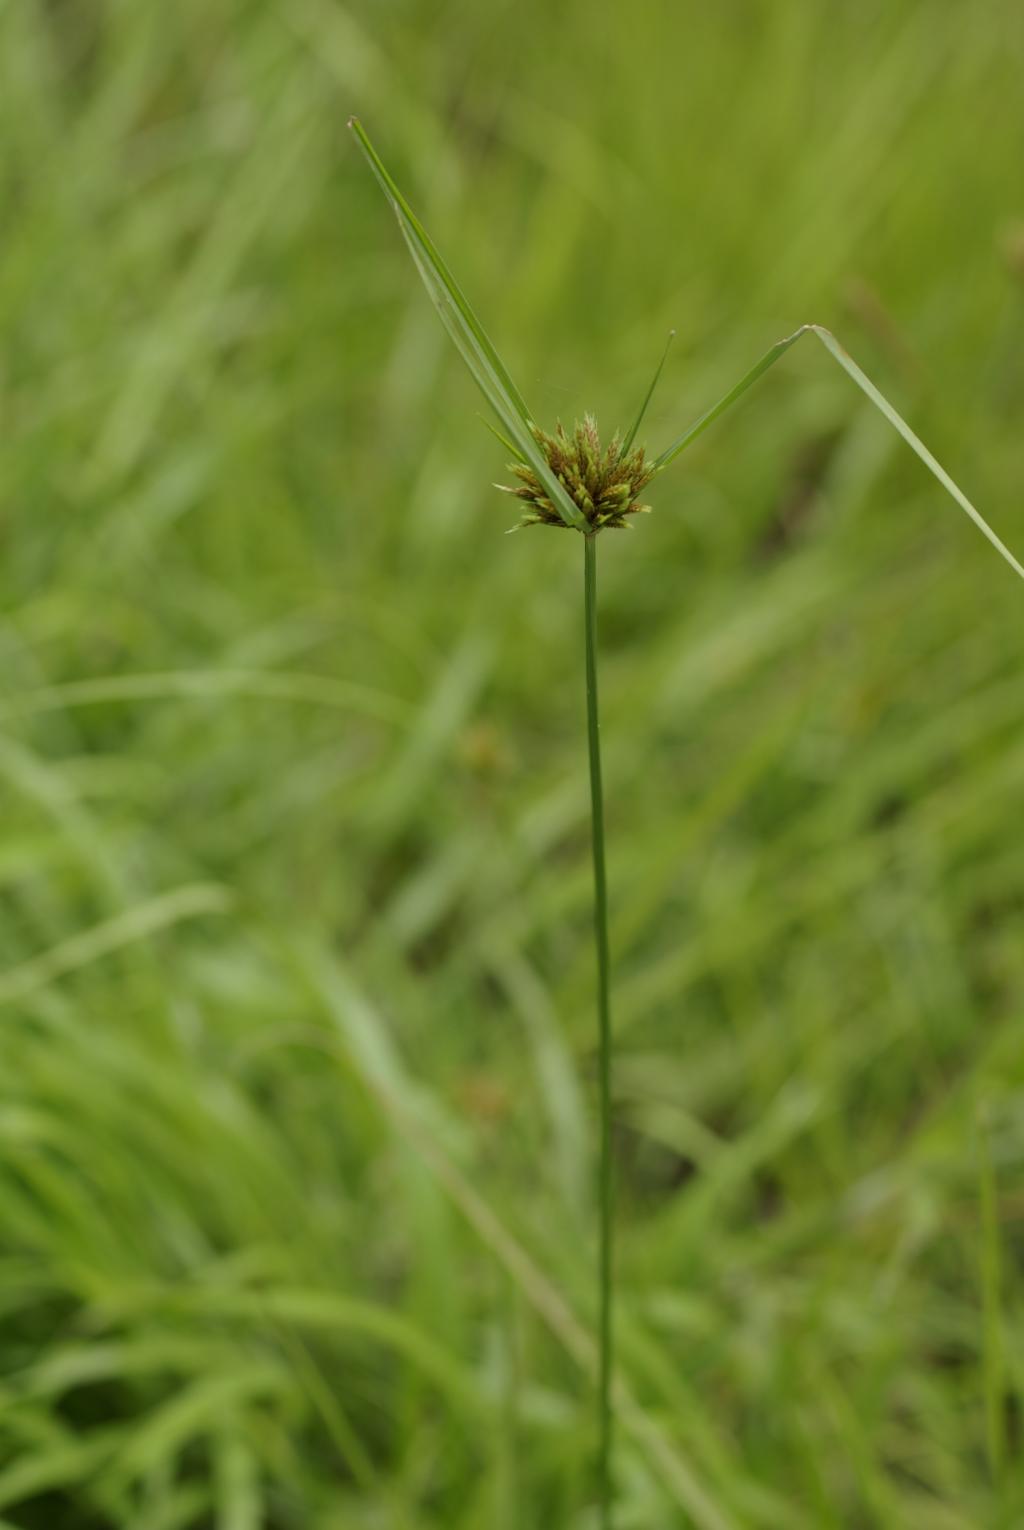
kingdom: Plantae
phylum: Tracheophyta
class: Liliopsida
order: Poales
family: Cyperaceae
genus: Cyperus
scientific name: Cyperus polystachyos
